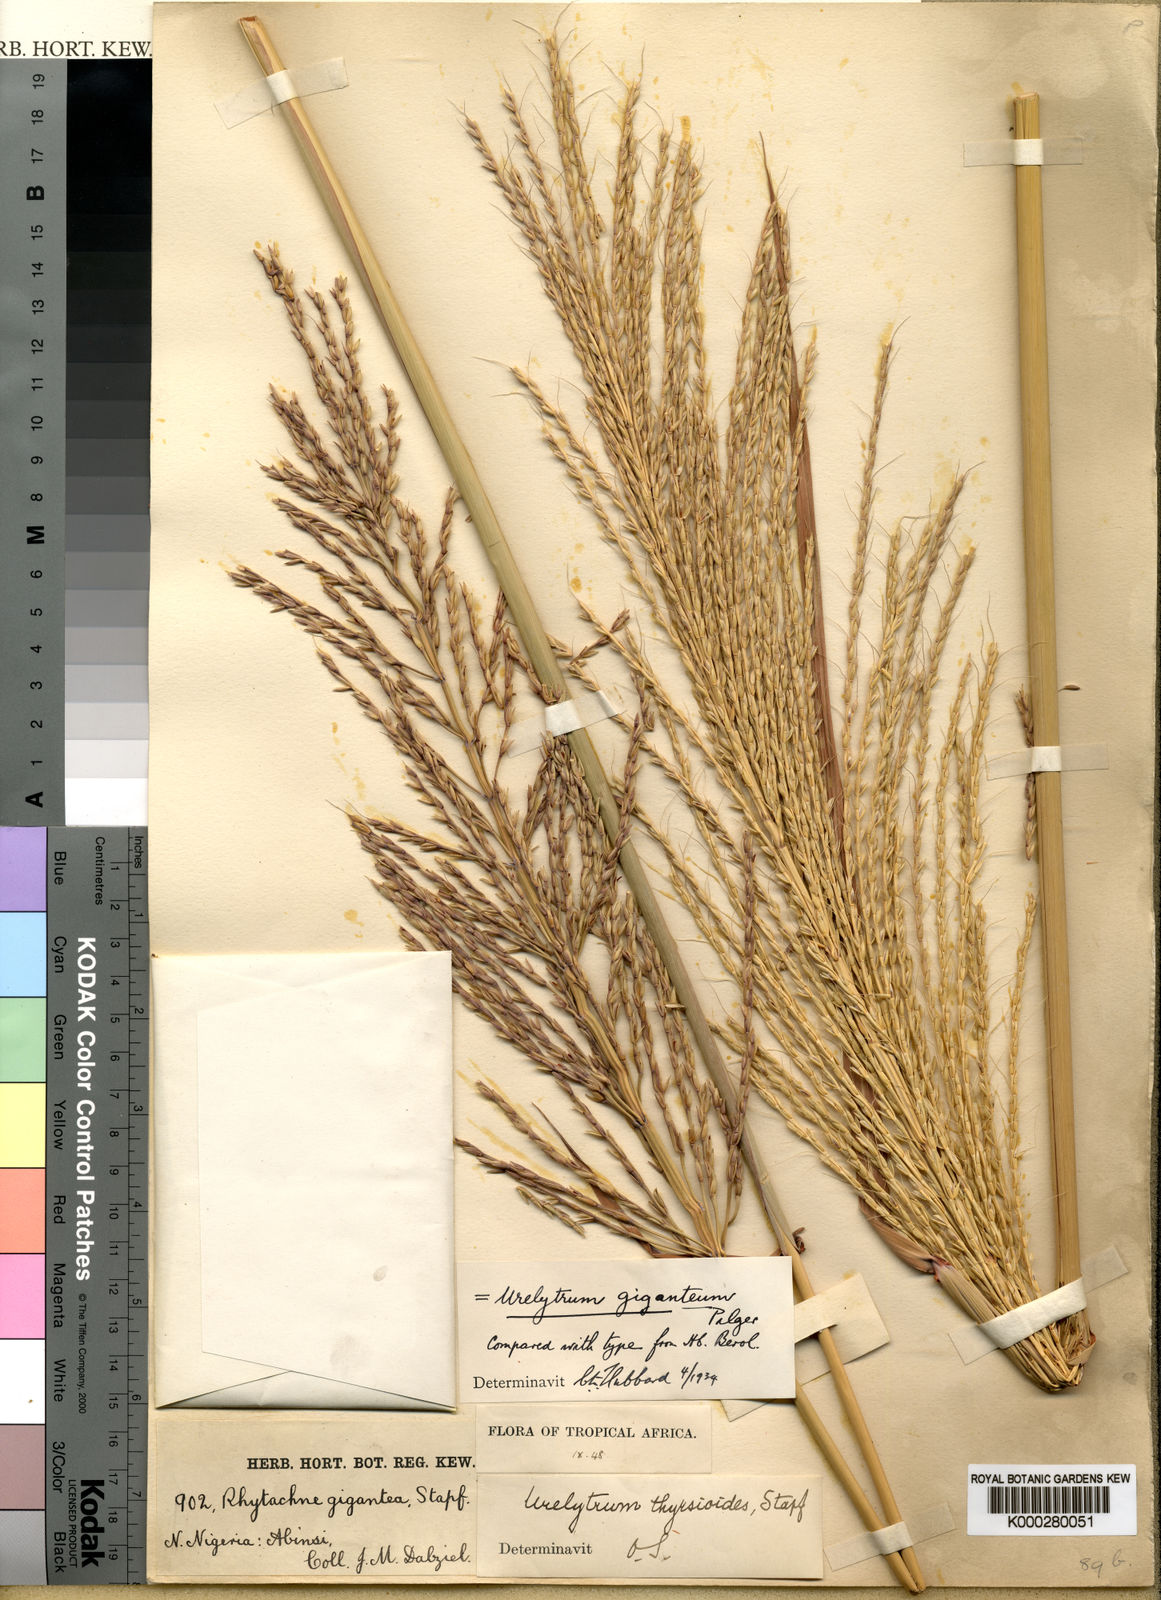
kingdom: Plantae
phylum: Tracheophyta
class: Liliopsida
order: Poales
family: Poaceae
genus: Urelytrum
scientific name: Urelytrum giganteum
